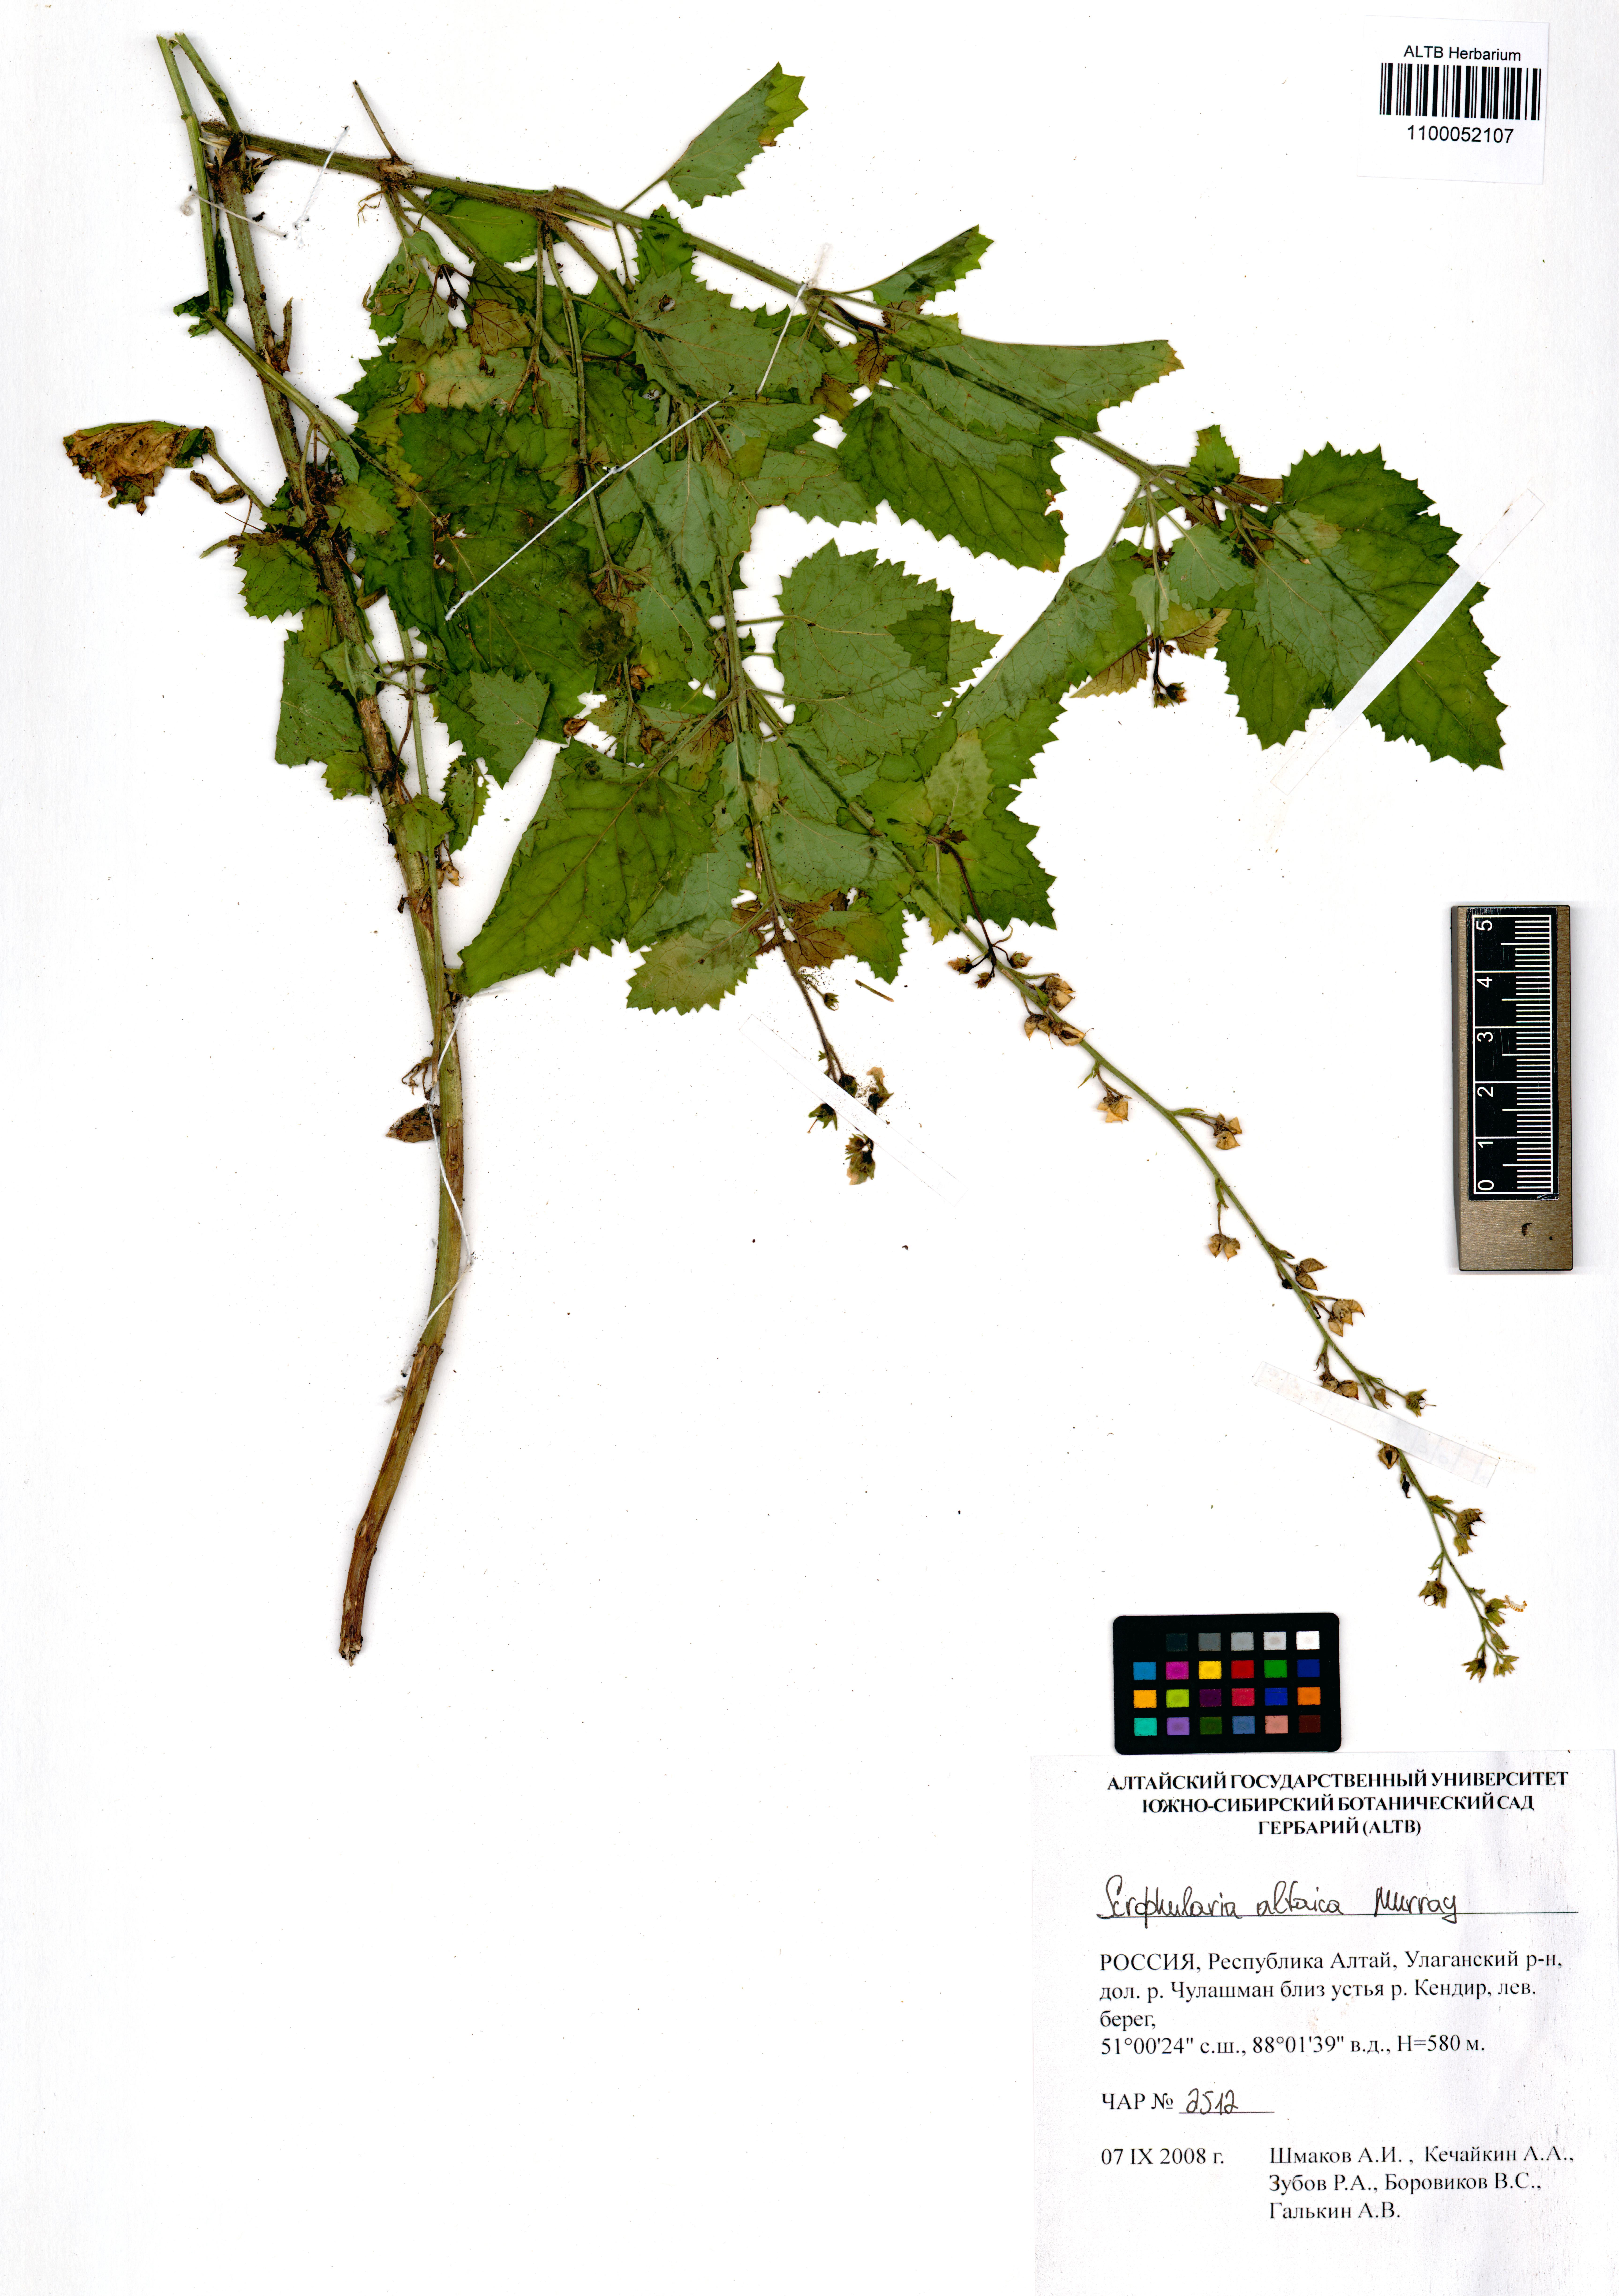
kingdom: Plantae
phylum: Tracheophyta
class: Magnoliopsida
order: Lamiales
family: Scrophulariaceae
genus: Scrophularia
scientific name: Scrophularia altaica
